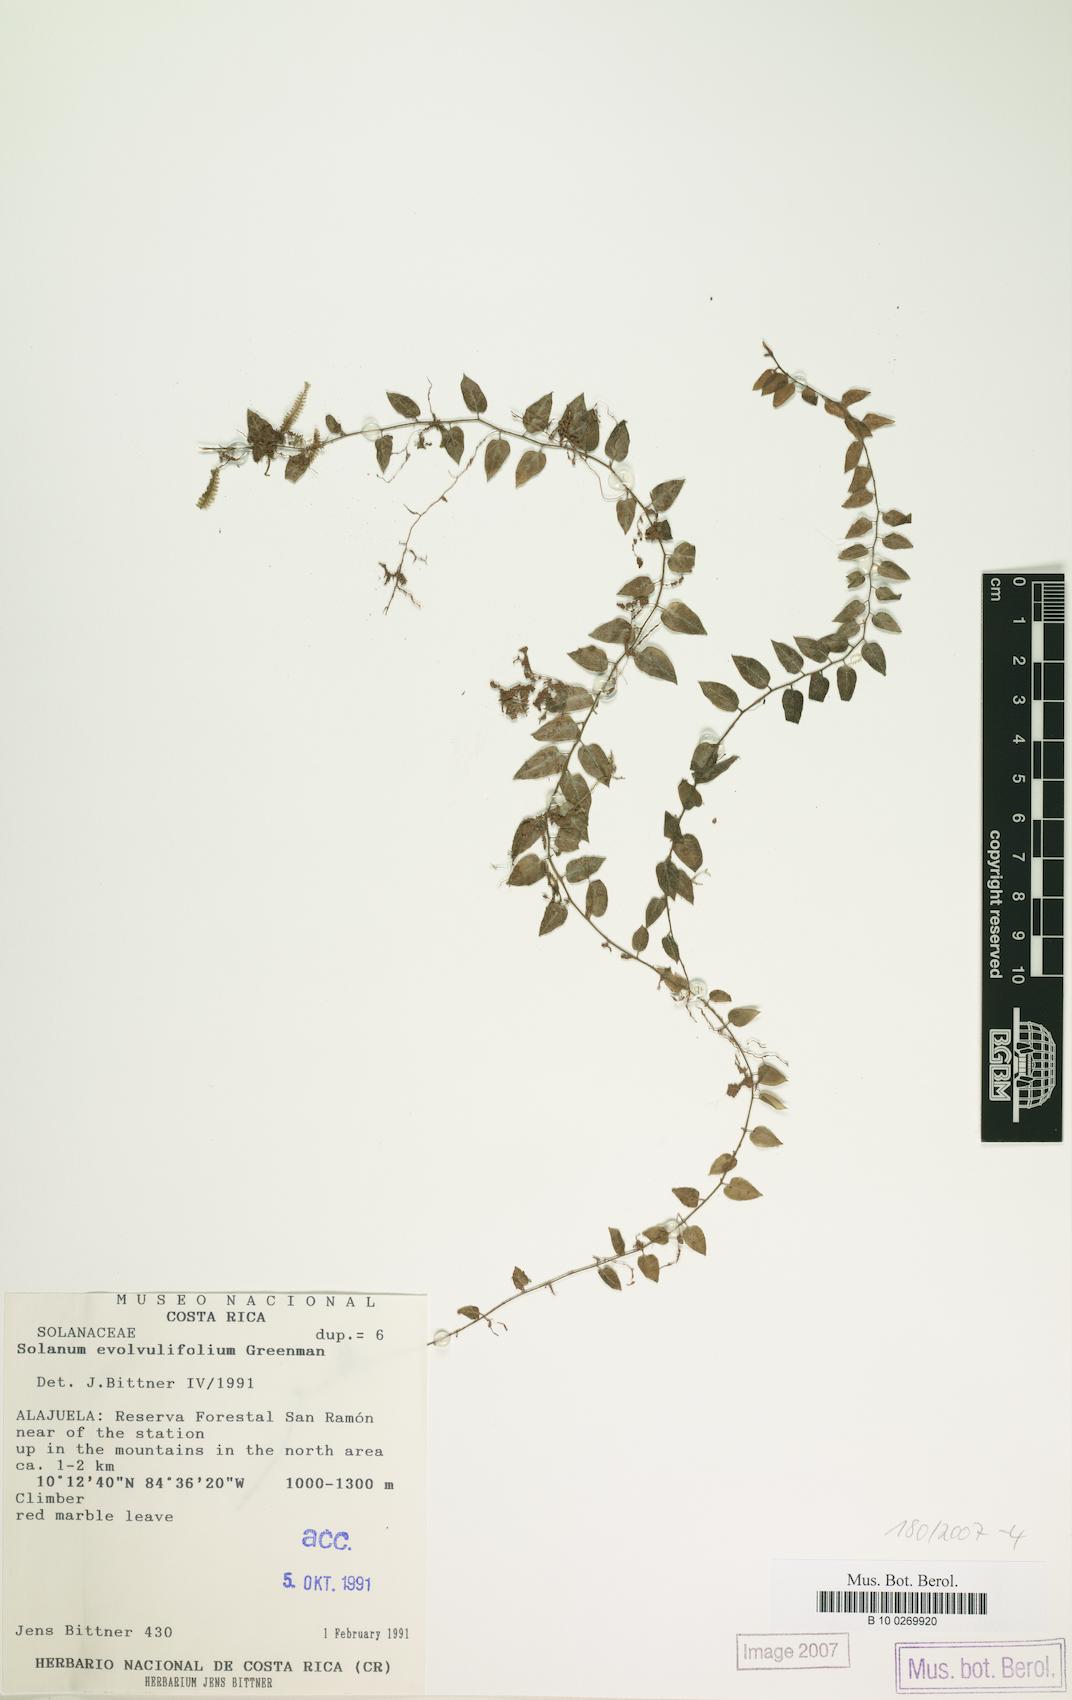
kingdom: Plantae
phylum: Tracheophyta
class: Magnoliopsida
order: Solanales
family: Solanaceae
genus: Solanum
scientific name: Solanum evolvulifolium
